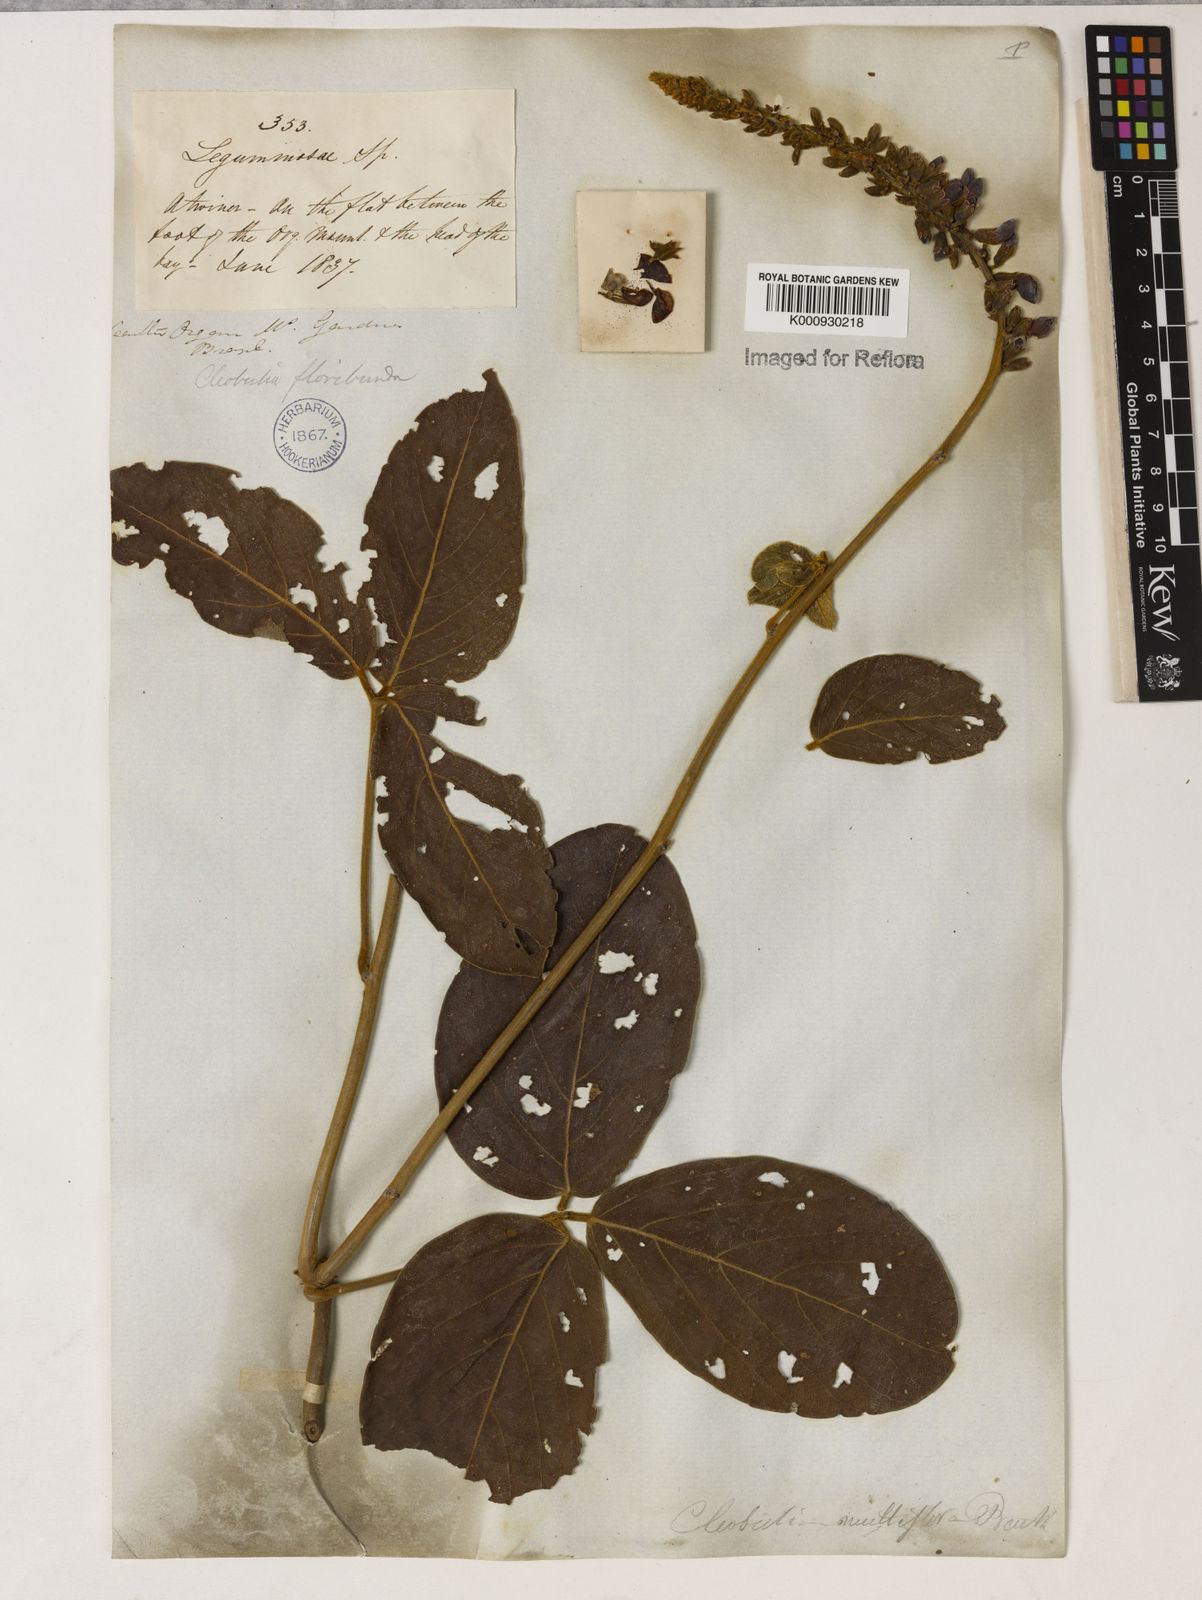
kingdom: Plantae
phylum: Tracheophyta
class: Magnoliopsida
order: Fabales
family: Fabaceae
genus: Cleobulia
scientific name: Cleobulia coccinea
